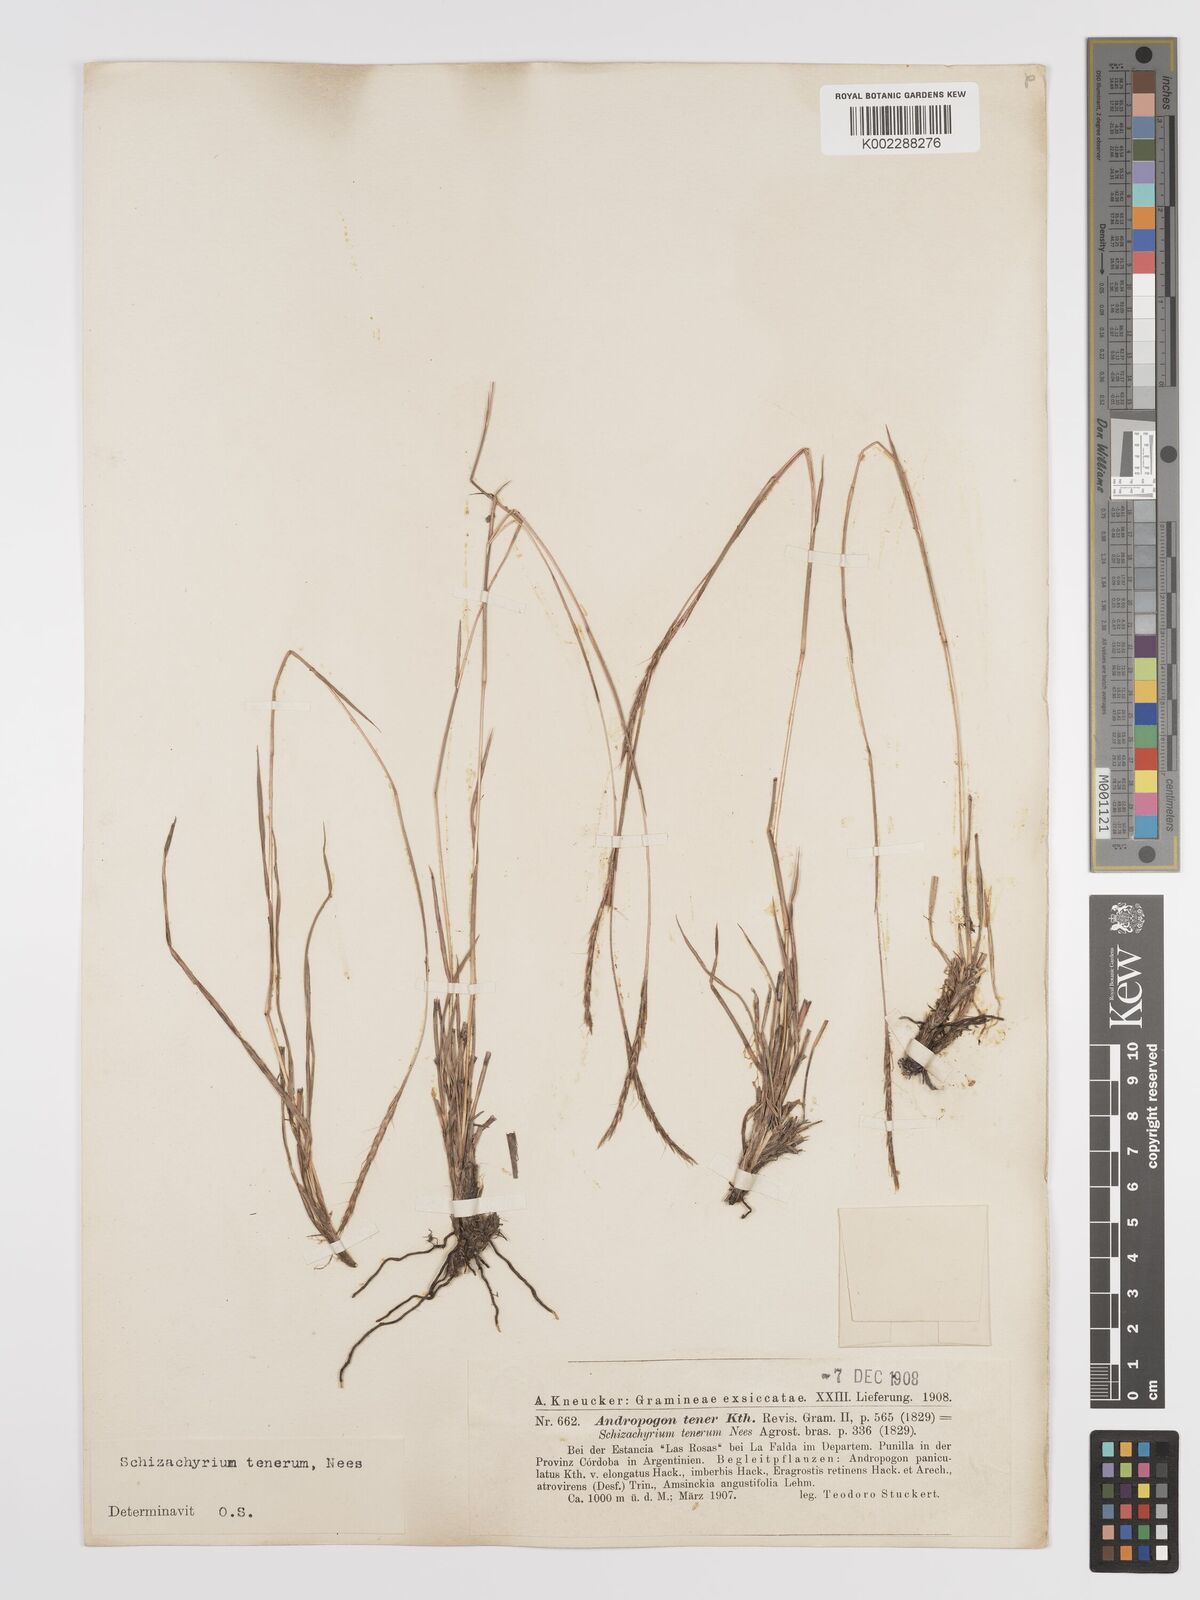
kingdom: Plantae
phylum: Tracheophyta
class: Liliopsida
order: Poales
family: Poaceae
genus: Andropogon
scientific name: Andropogon tener
